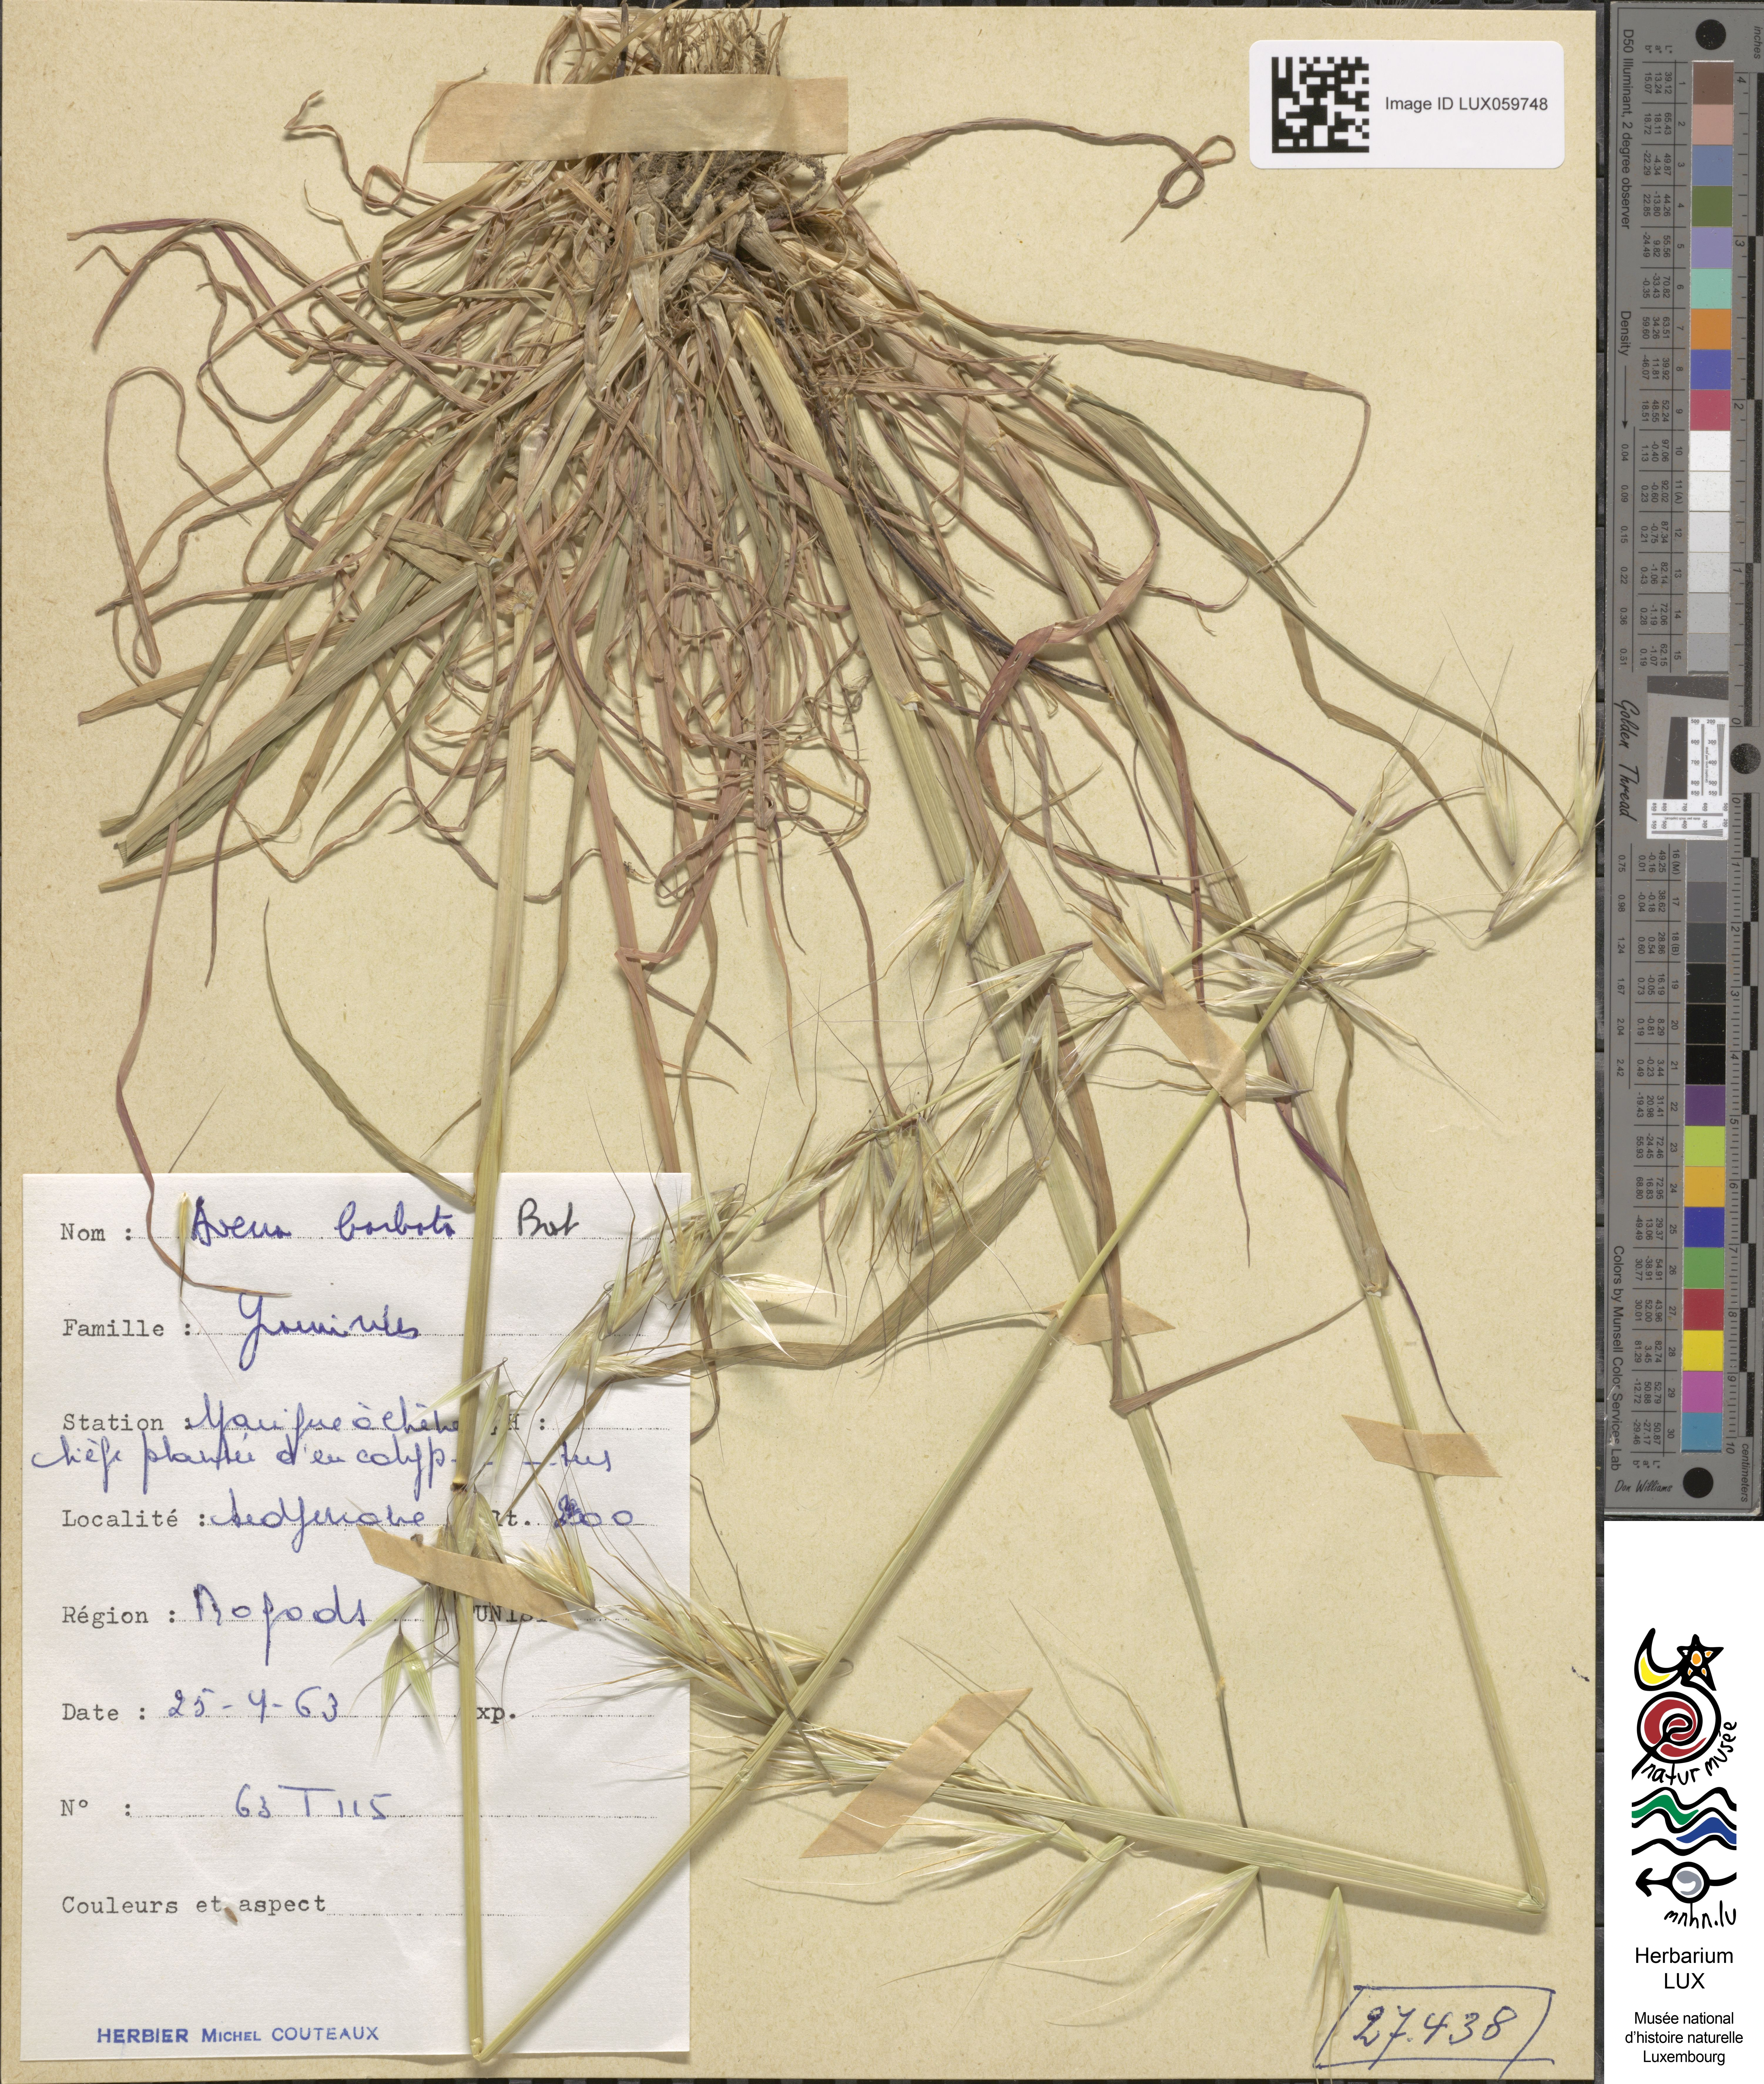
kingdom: Plantae
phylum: Tracheophyta
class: Liliopsida
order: Poales
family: Poaceae
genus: Avena
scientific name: Avena barbata
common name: Slender oat
